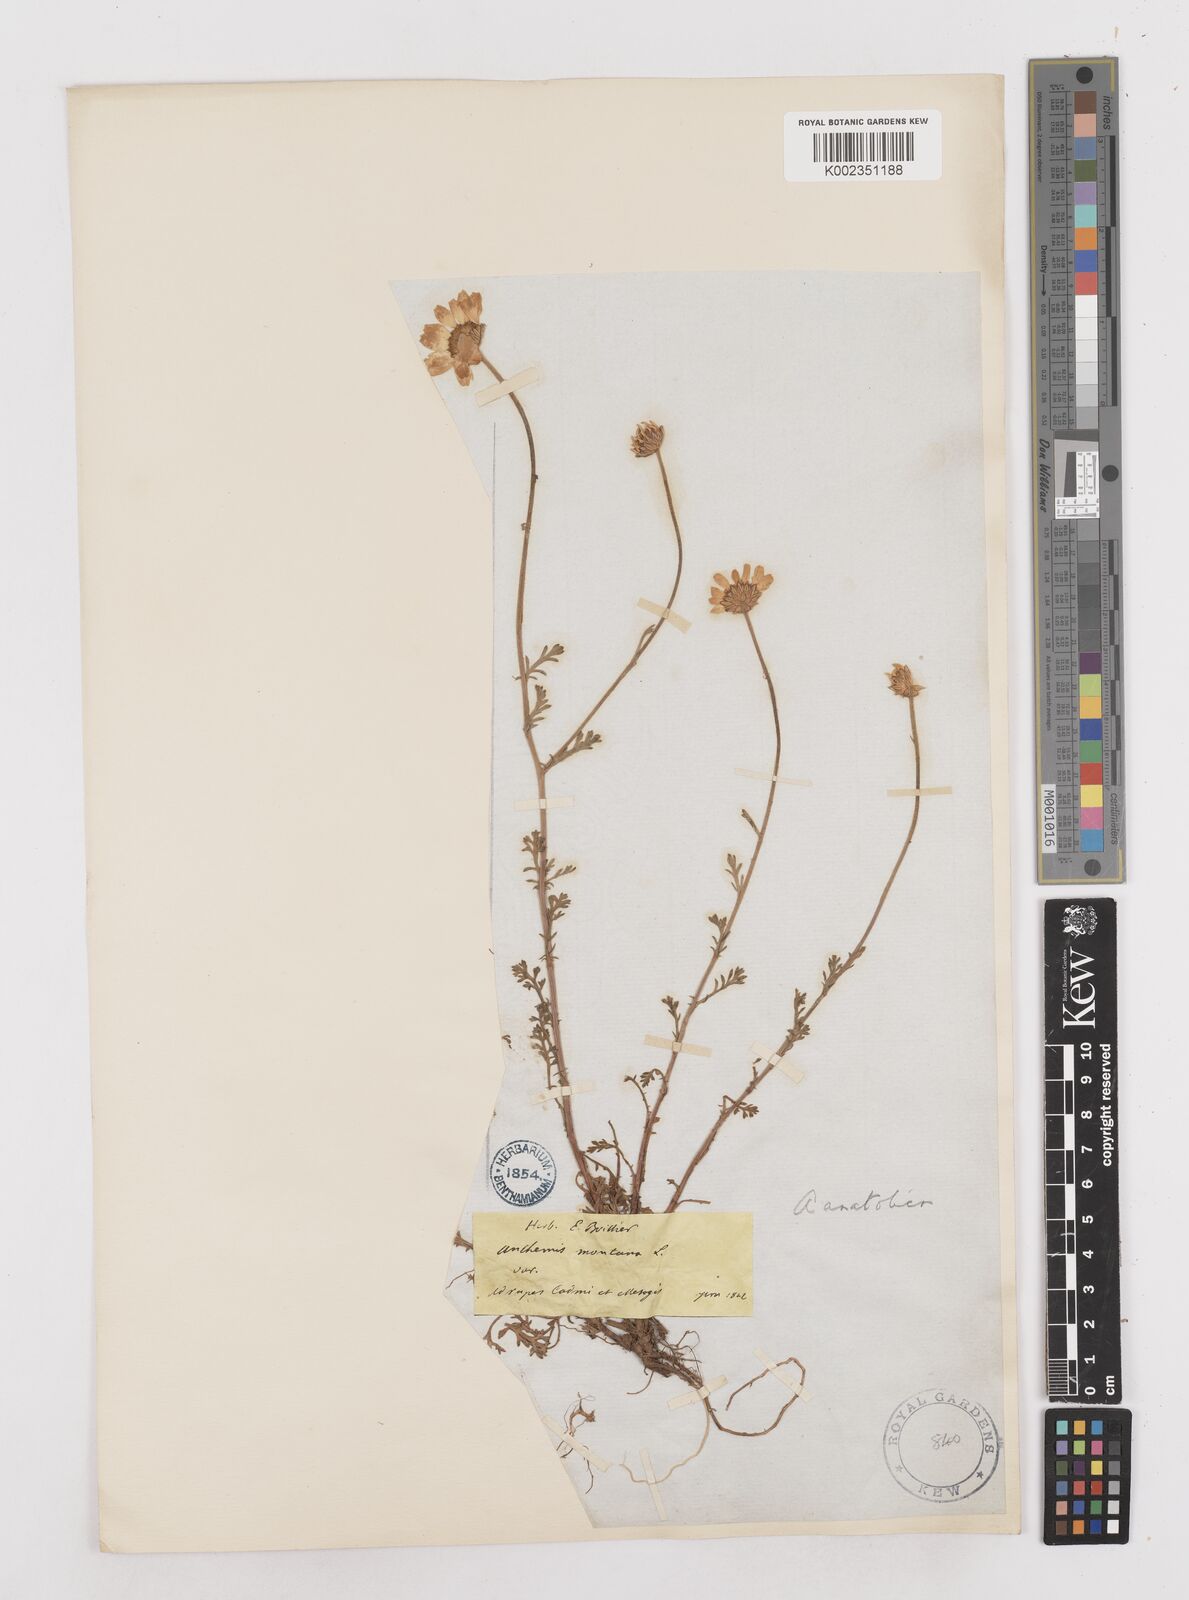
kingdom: Plantae
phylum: Tracheophyta
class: Magnoliopsida
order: Asterales
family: Asteraceae
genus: Anthemis
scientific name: Anthemis cretica
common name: Mountain dog-daisy
